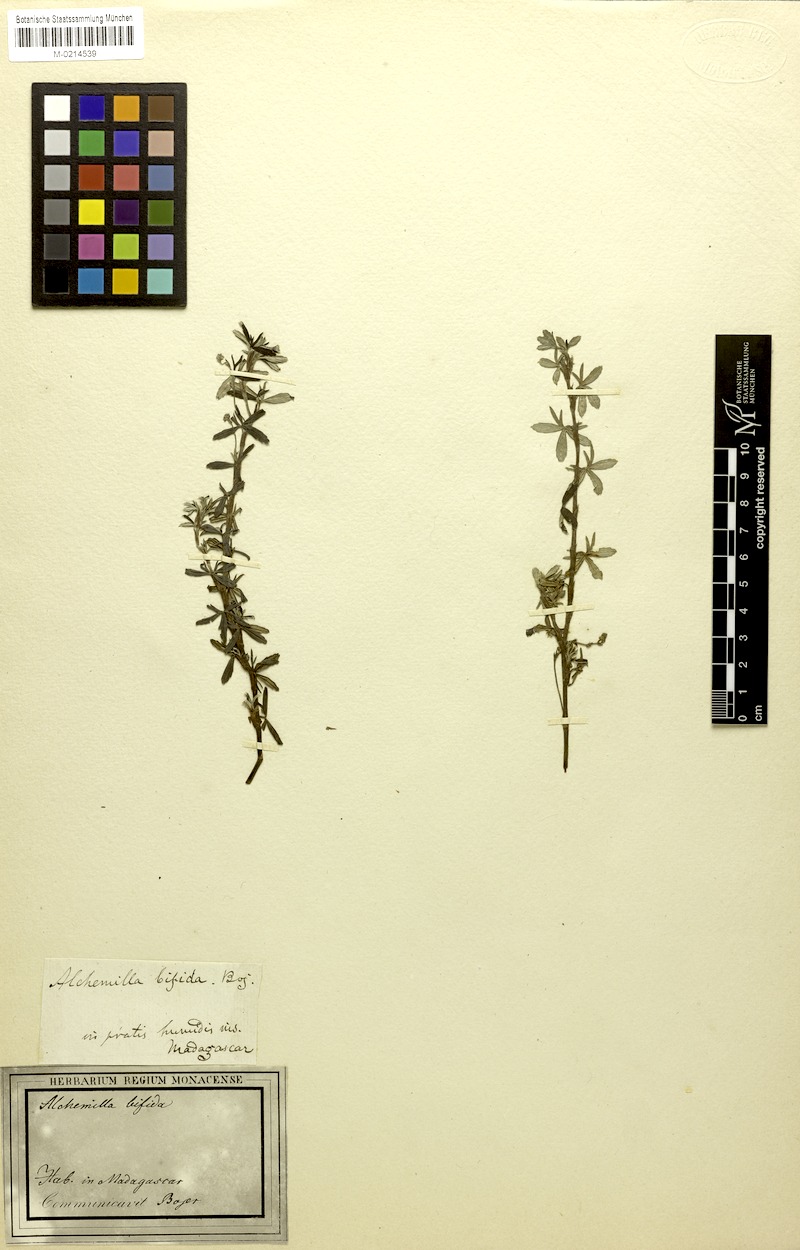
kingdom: Plantae
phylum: Tracheophyta
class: Magnoliopsida
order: Rosales
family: Rosaceae
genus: Alchemilla
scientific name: Alchemilla
